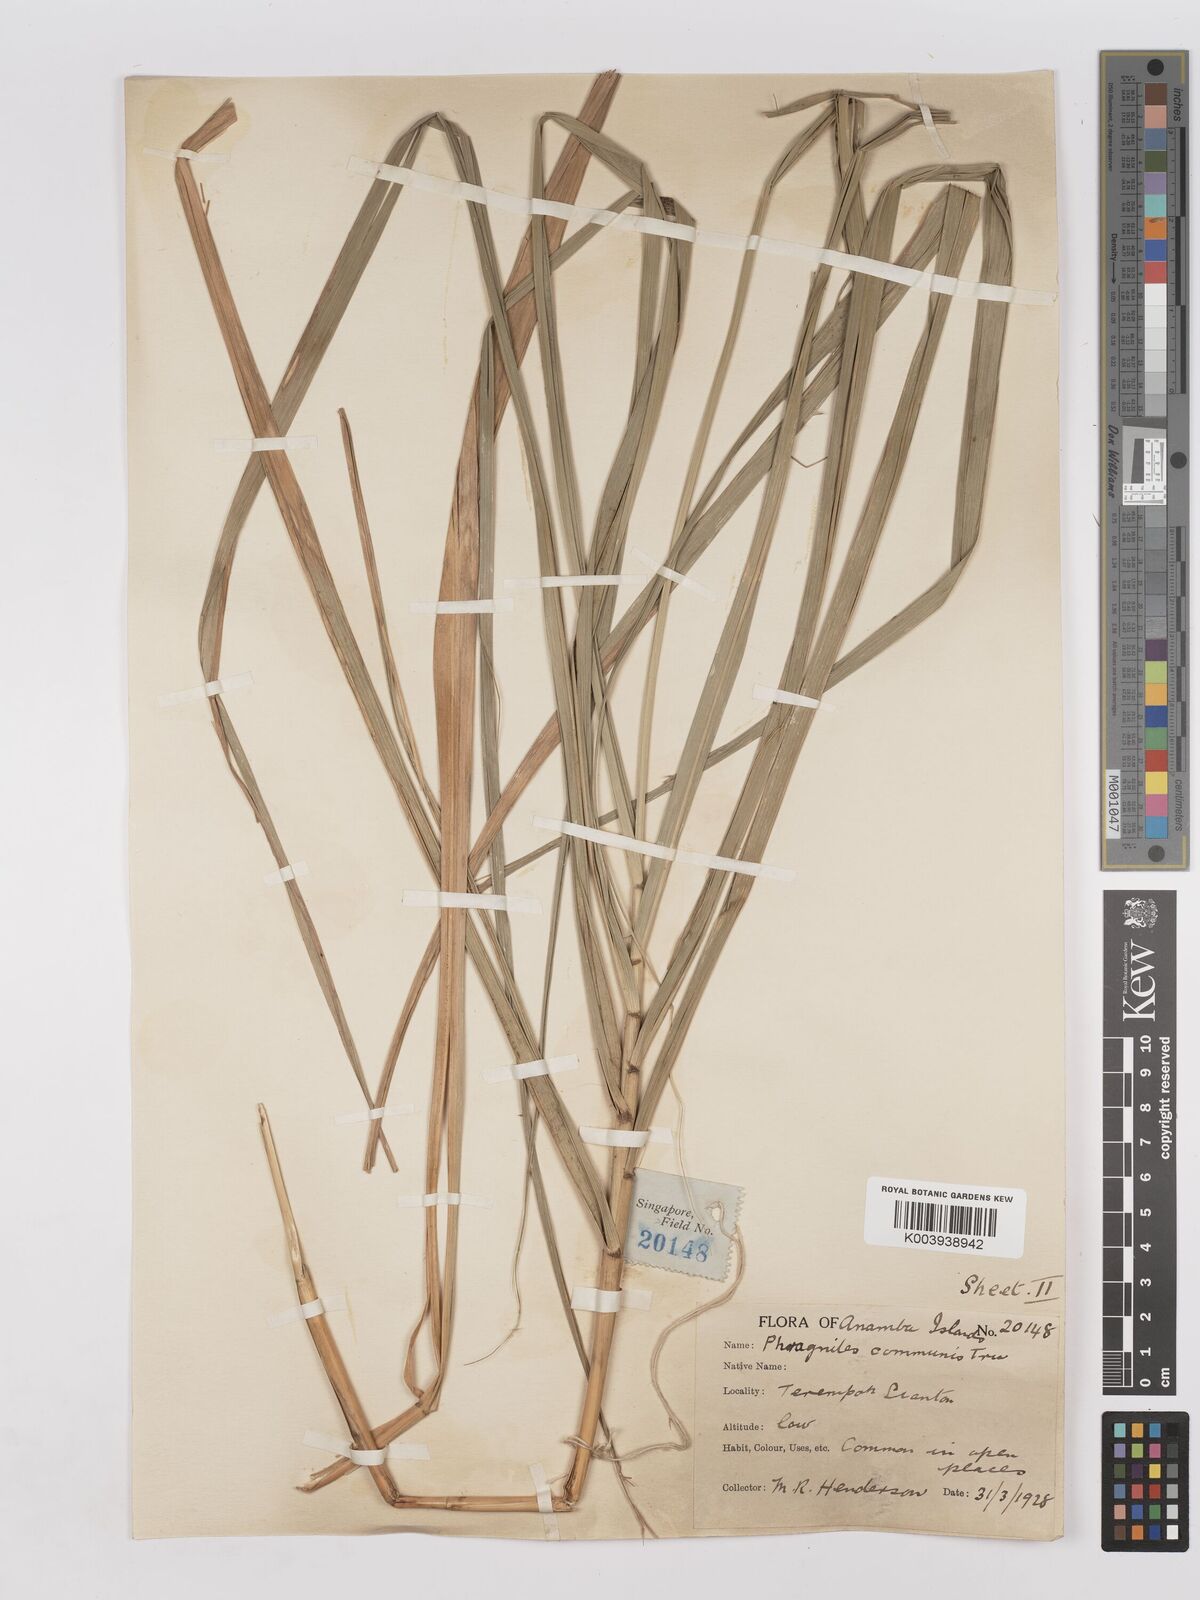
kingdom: Plantae
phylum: Tracheophyta
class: Liliopsida
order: Poales
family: Poaceae
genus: Phragmites
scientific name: Phragmites
